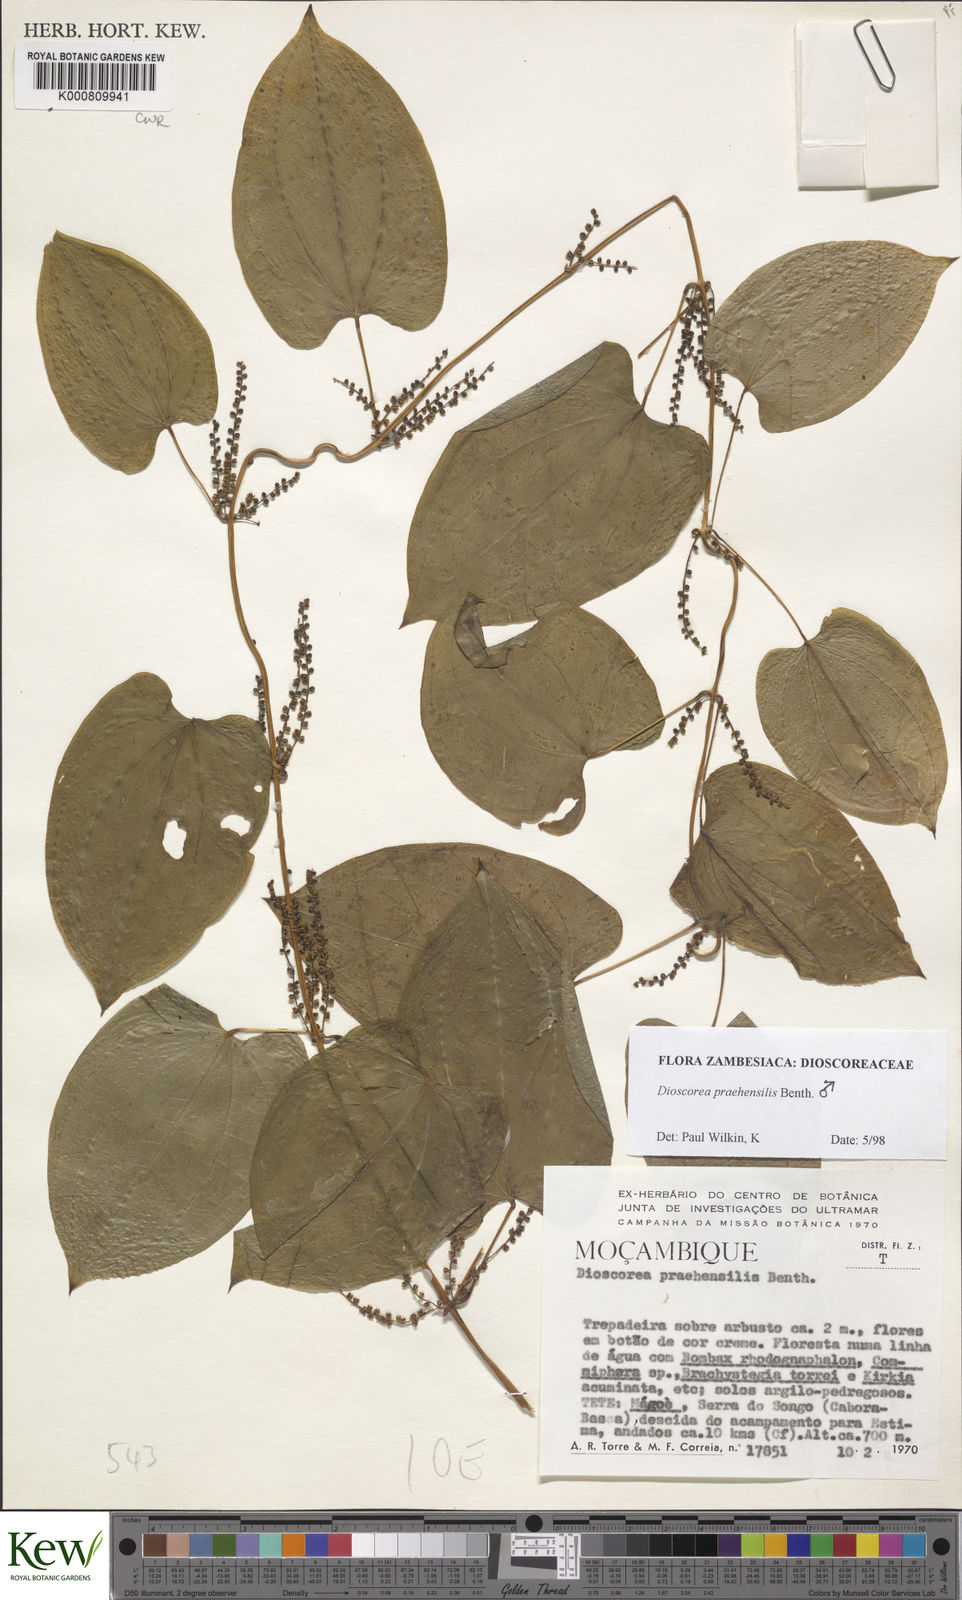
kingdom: Plantae
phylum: Tracheophyta
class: Liliopsida
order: Dioscoreales
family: Dioscoreaceae
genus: Dioscorea
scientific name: Dioscorea praehensilis
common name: Bush yam
